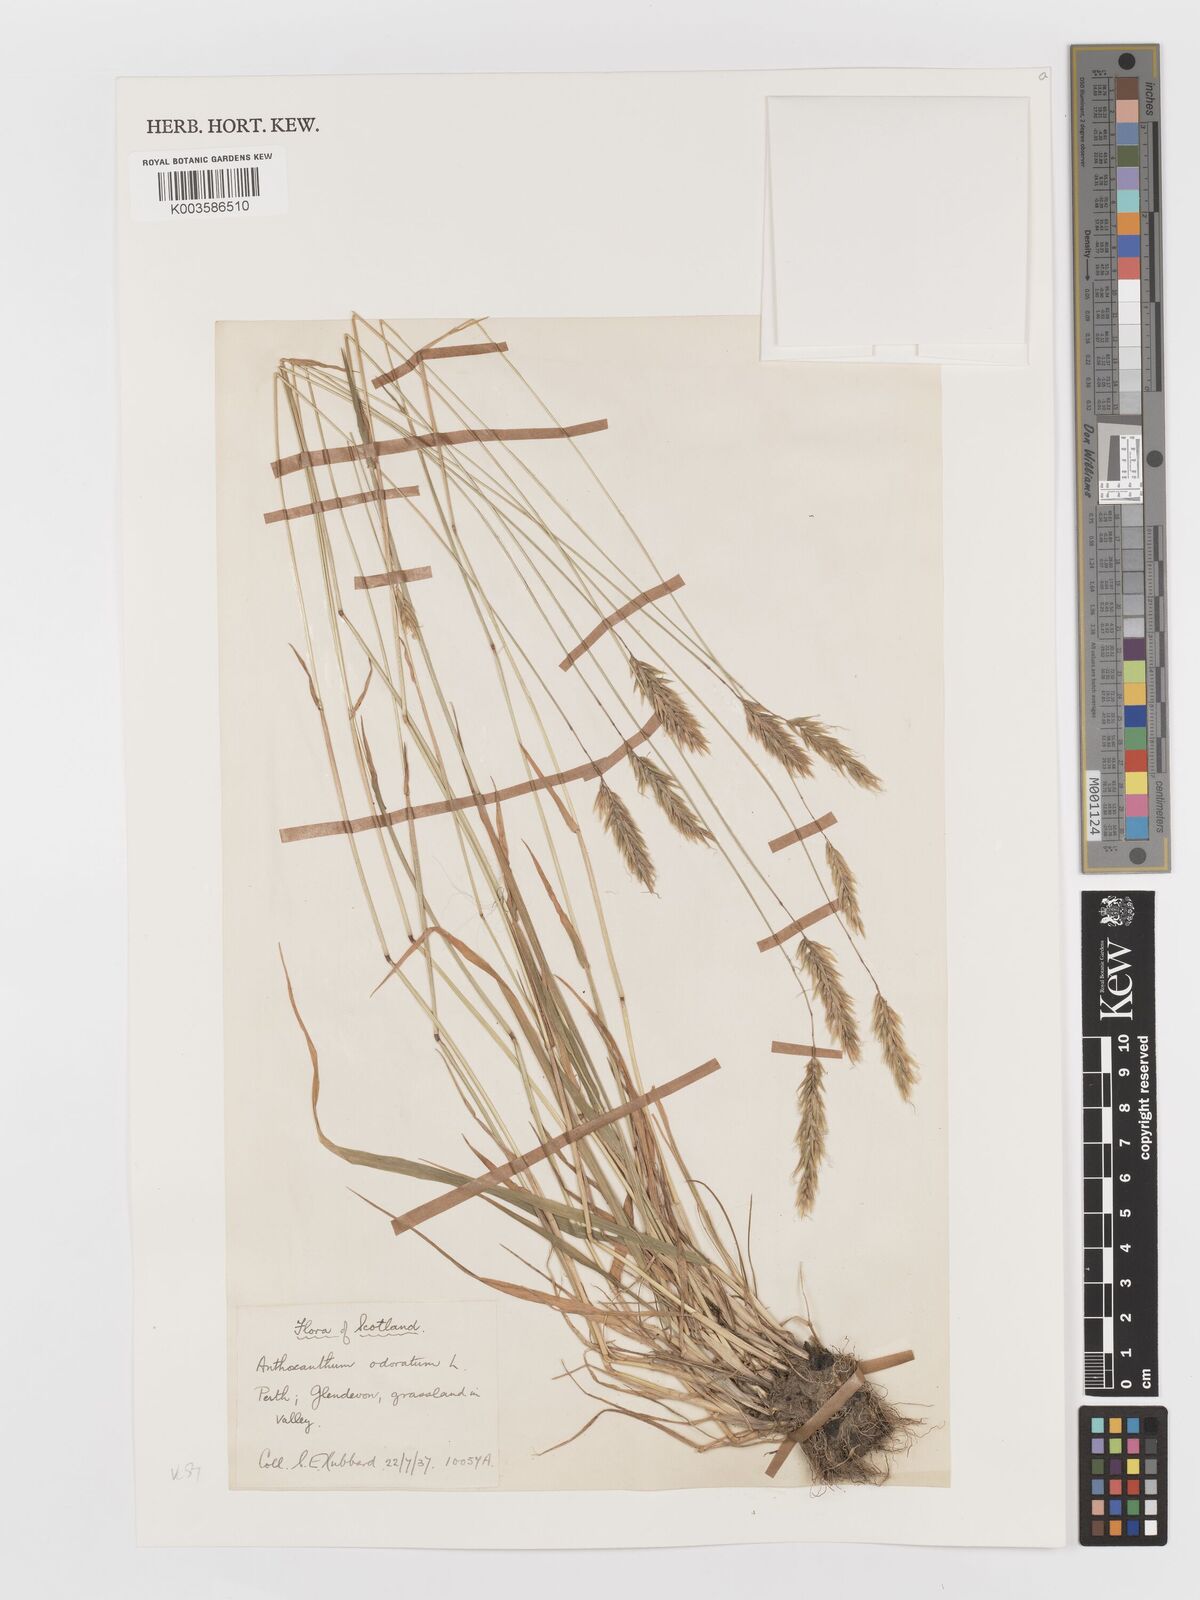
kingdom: Plantae
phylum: Tracheophyta
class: Liliopsida
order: Poales
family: Poaceae
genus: Anthoxanthum
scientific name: Anthoxanthum odoratum
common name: Sweet vernalgrass
